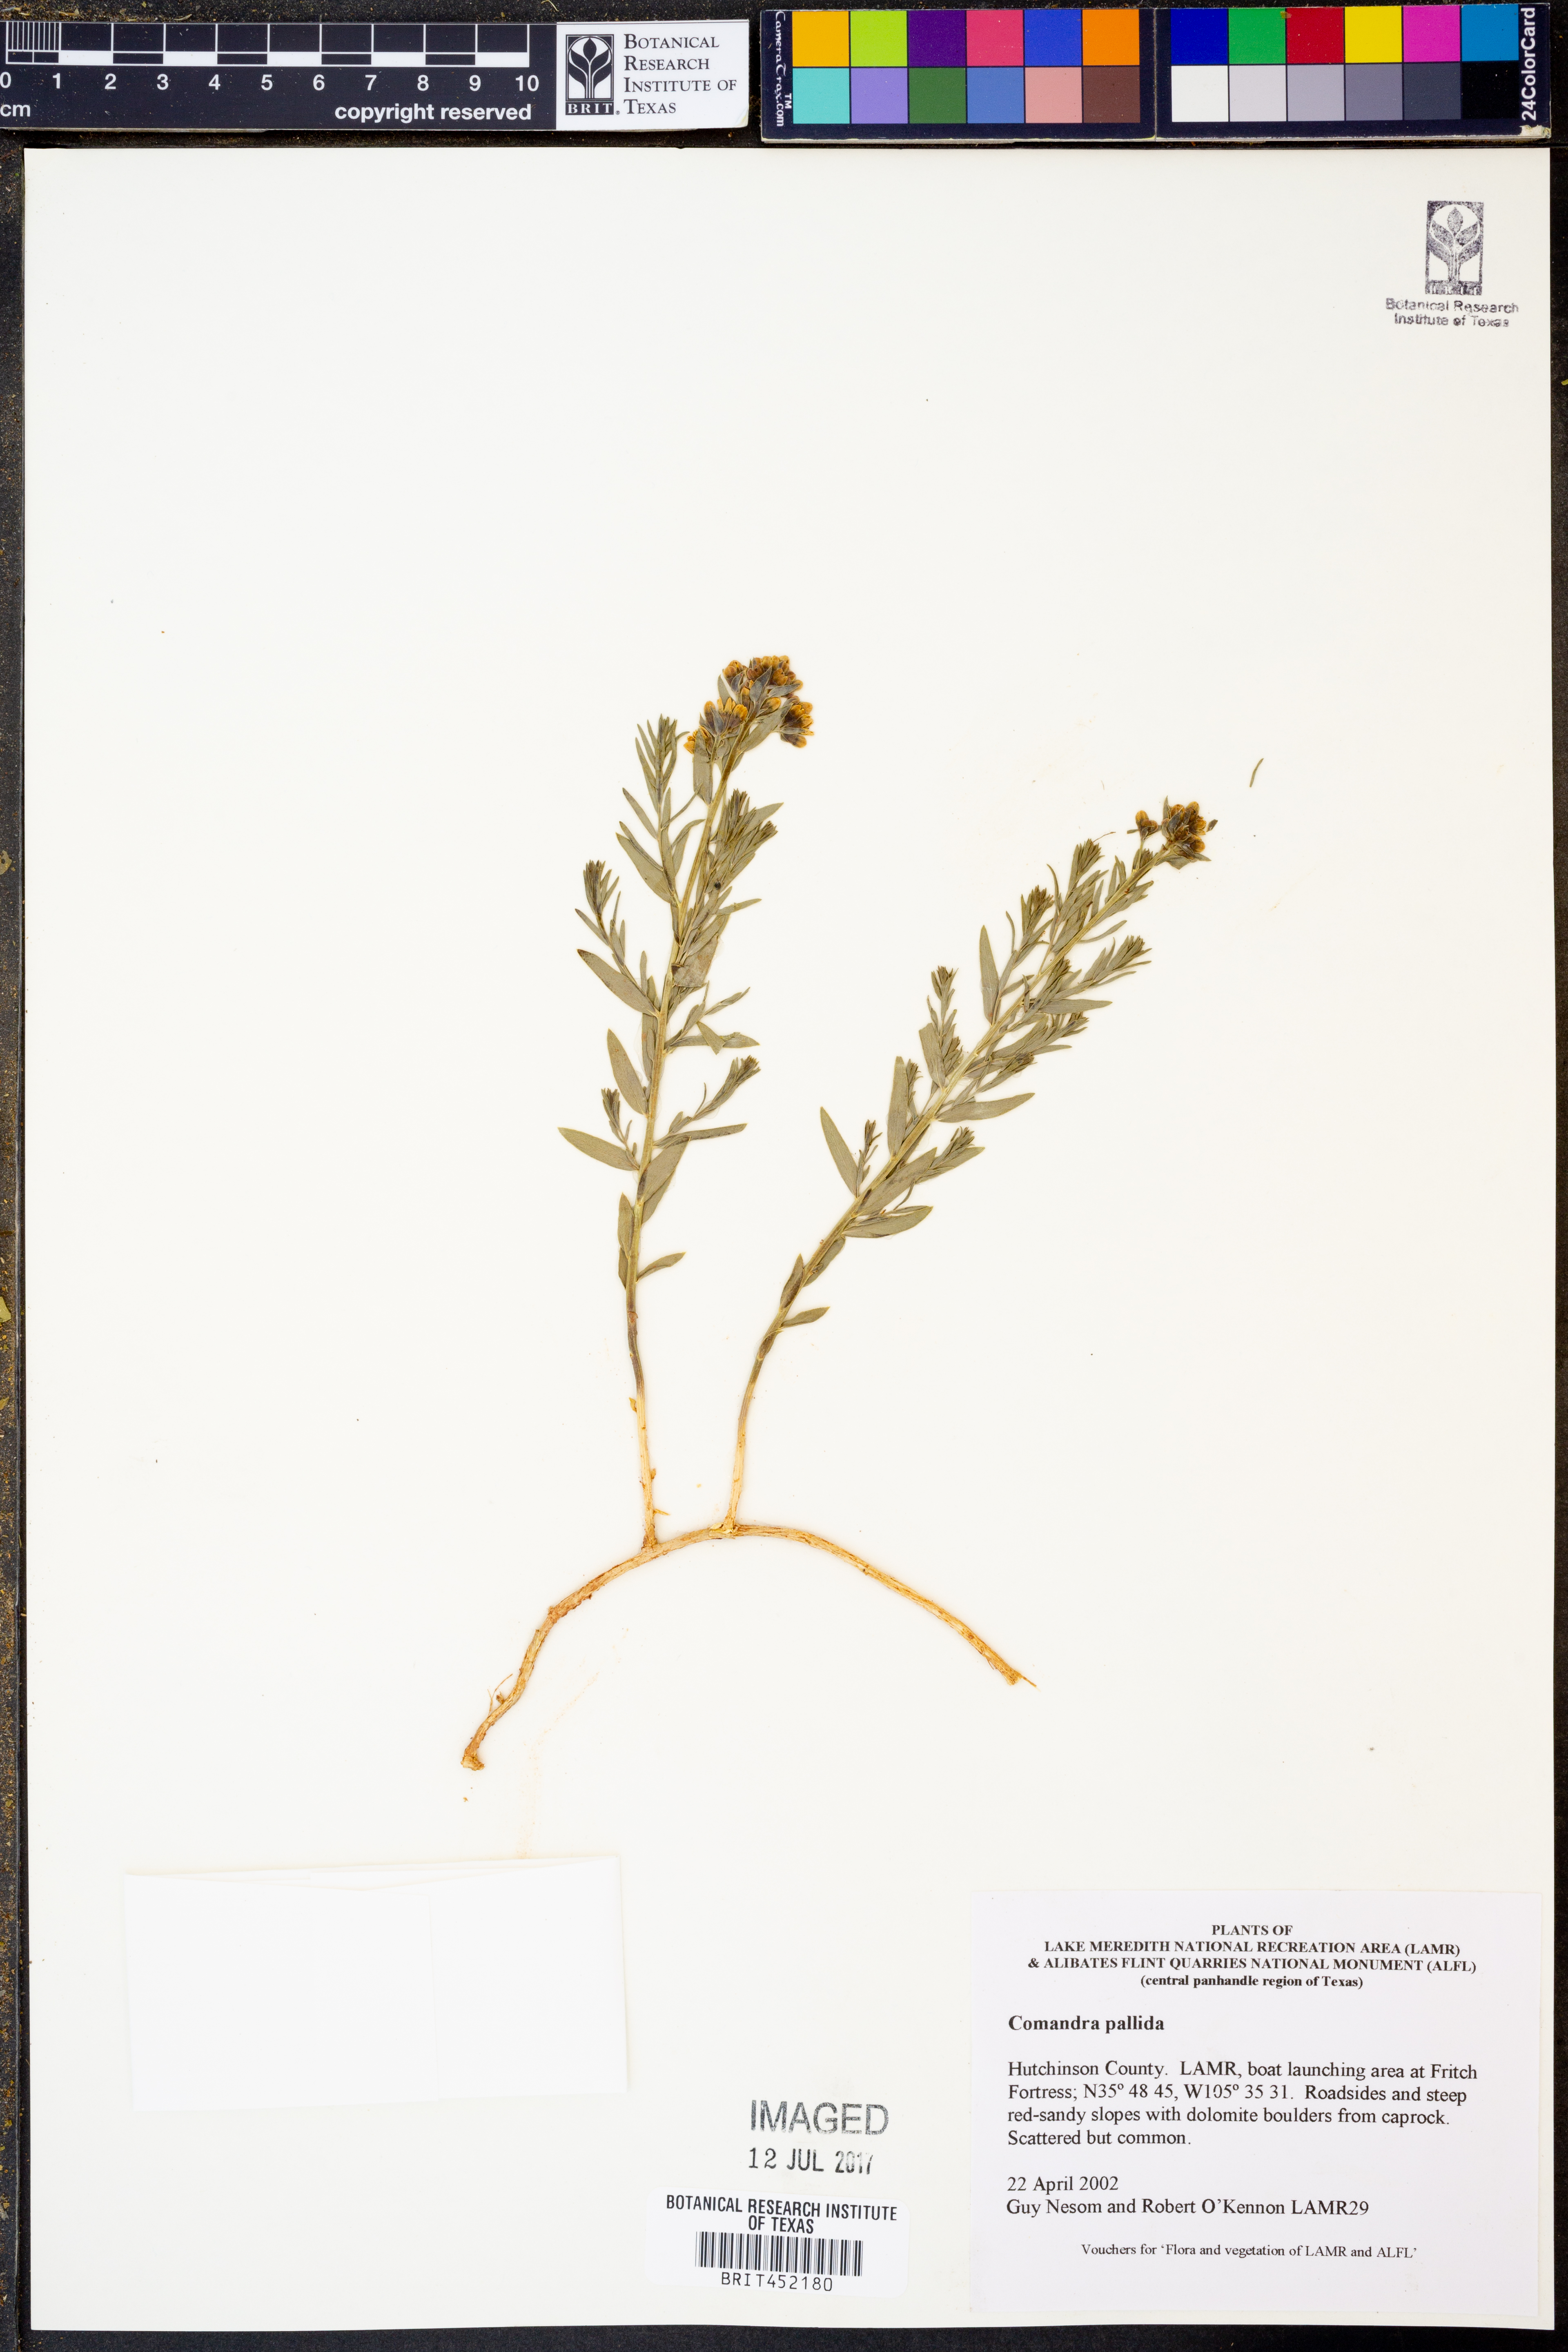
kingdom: Plantae
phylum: Tracheophyta
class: Magnoliopsida
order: Santalales
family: Comandraceae
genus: Comandra
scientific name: Comandra umbellata
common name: Bastard toadflax
